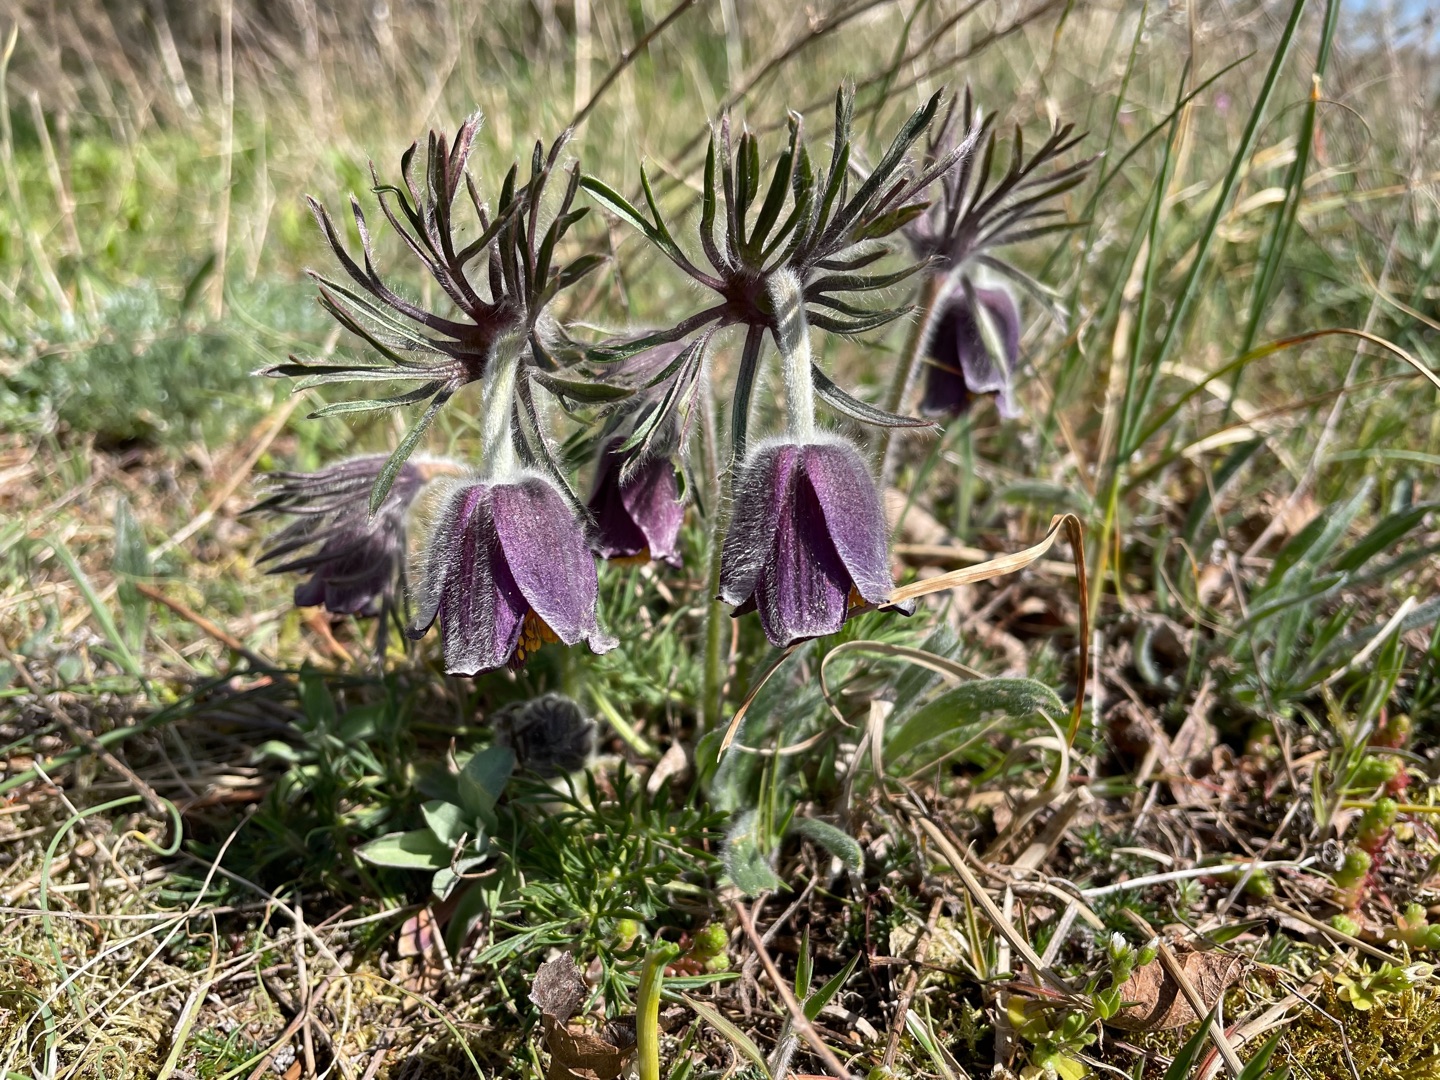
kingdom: Plantae
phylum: Tracheophyta
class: Magnoliopsida
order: Ranunculales
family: Ranunculaceae
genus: Pulsatilla
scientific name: Pulsatilla pratensis
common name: Nikkende kobjælde
